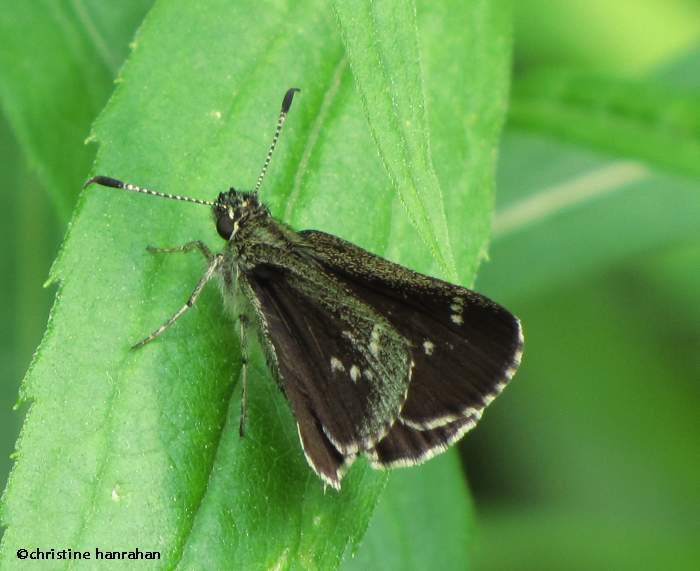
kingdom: Animalia
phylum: Arthropoda
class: Insecta
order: Lepidoptera
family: Hesperiidae
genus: Mastor
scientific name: Mastor hegon
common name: Pepper and Salt Skipper
